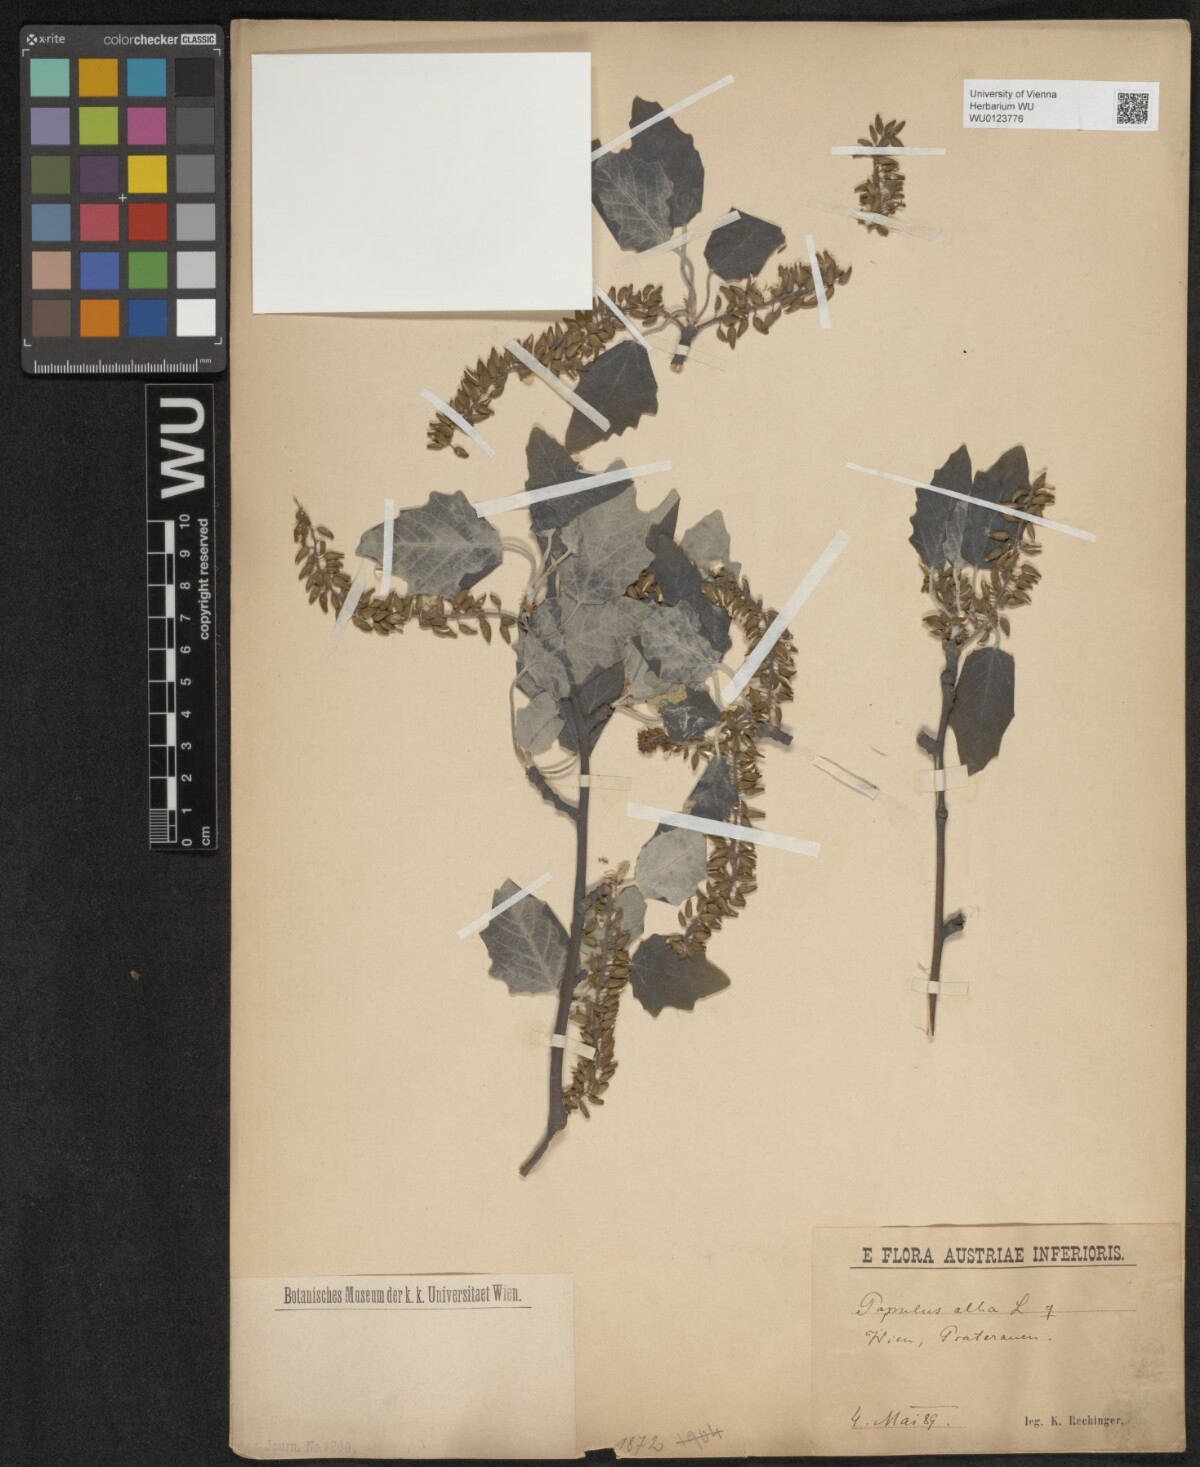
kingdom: Plantae
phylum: Tracheophyta
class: Magnoliopsida
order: Malpighiales
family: Salicaceae
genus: Populus
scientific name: Populus alba
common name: White poplar
